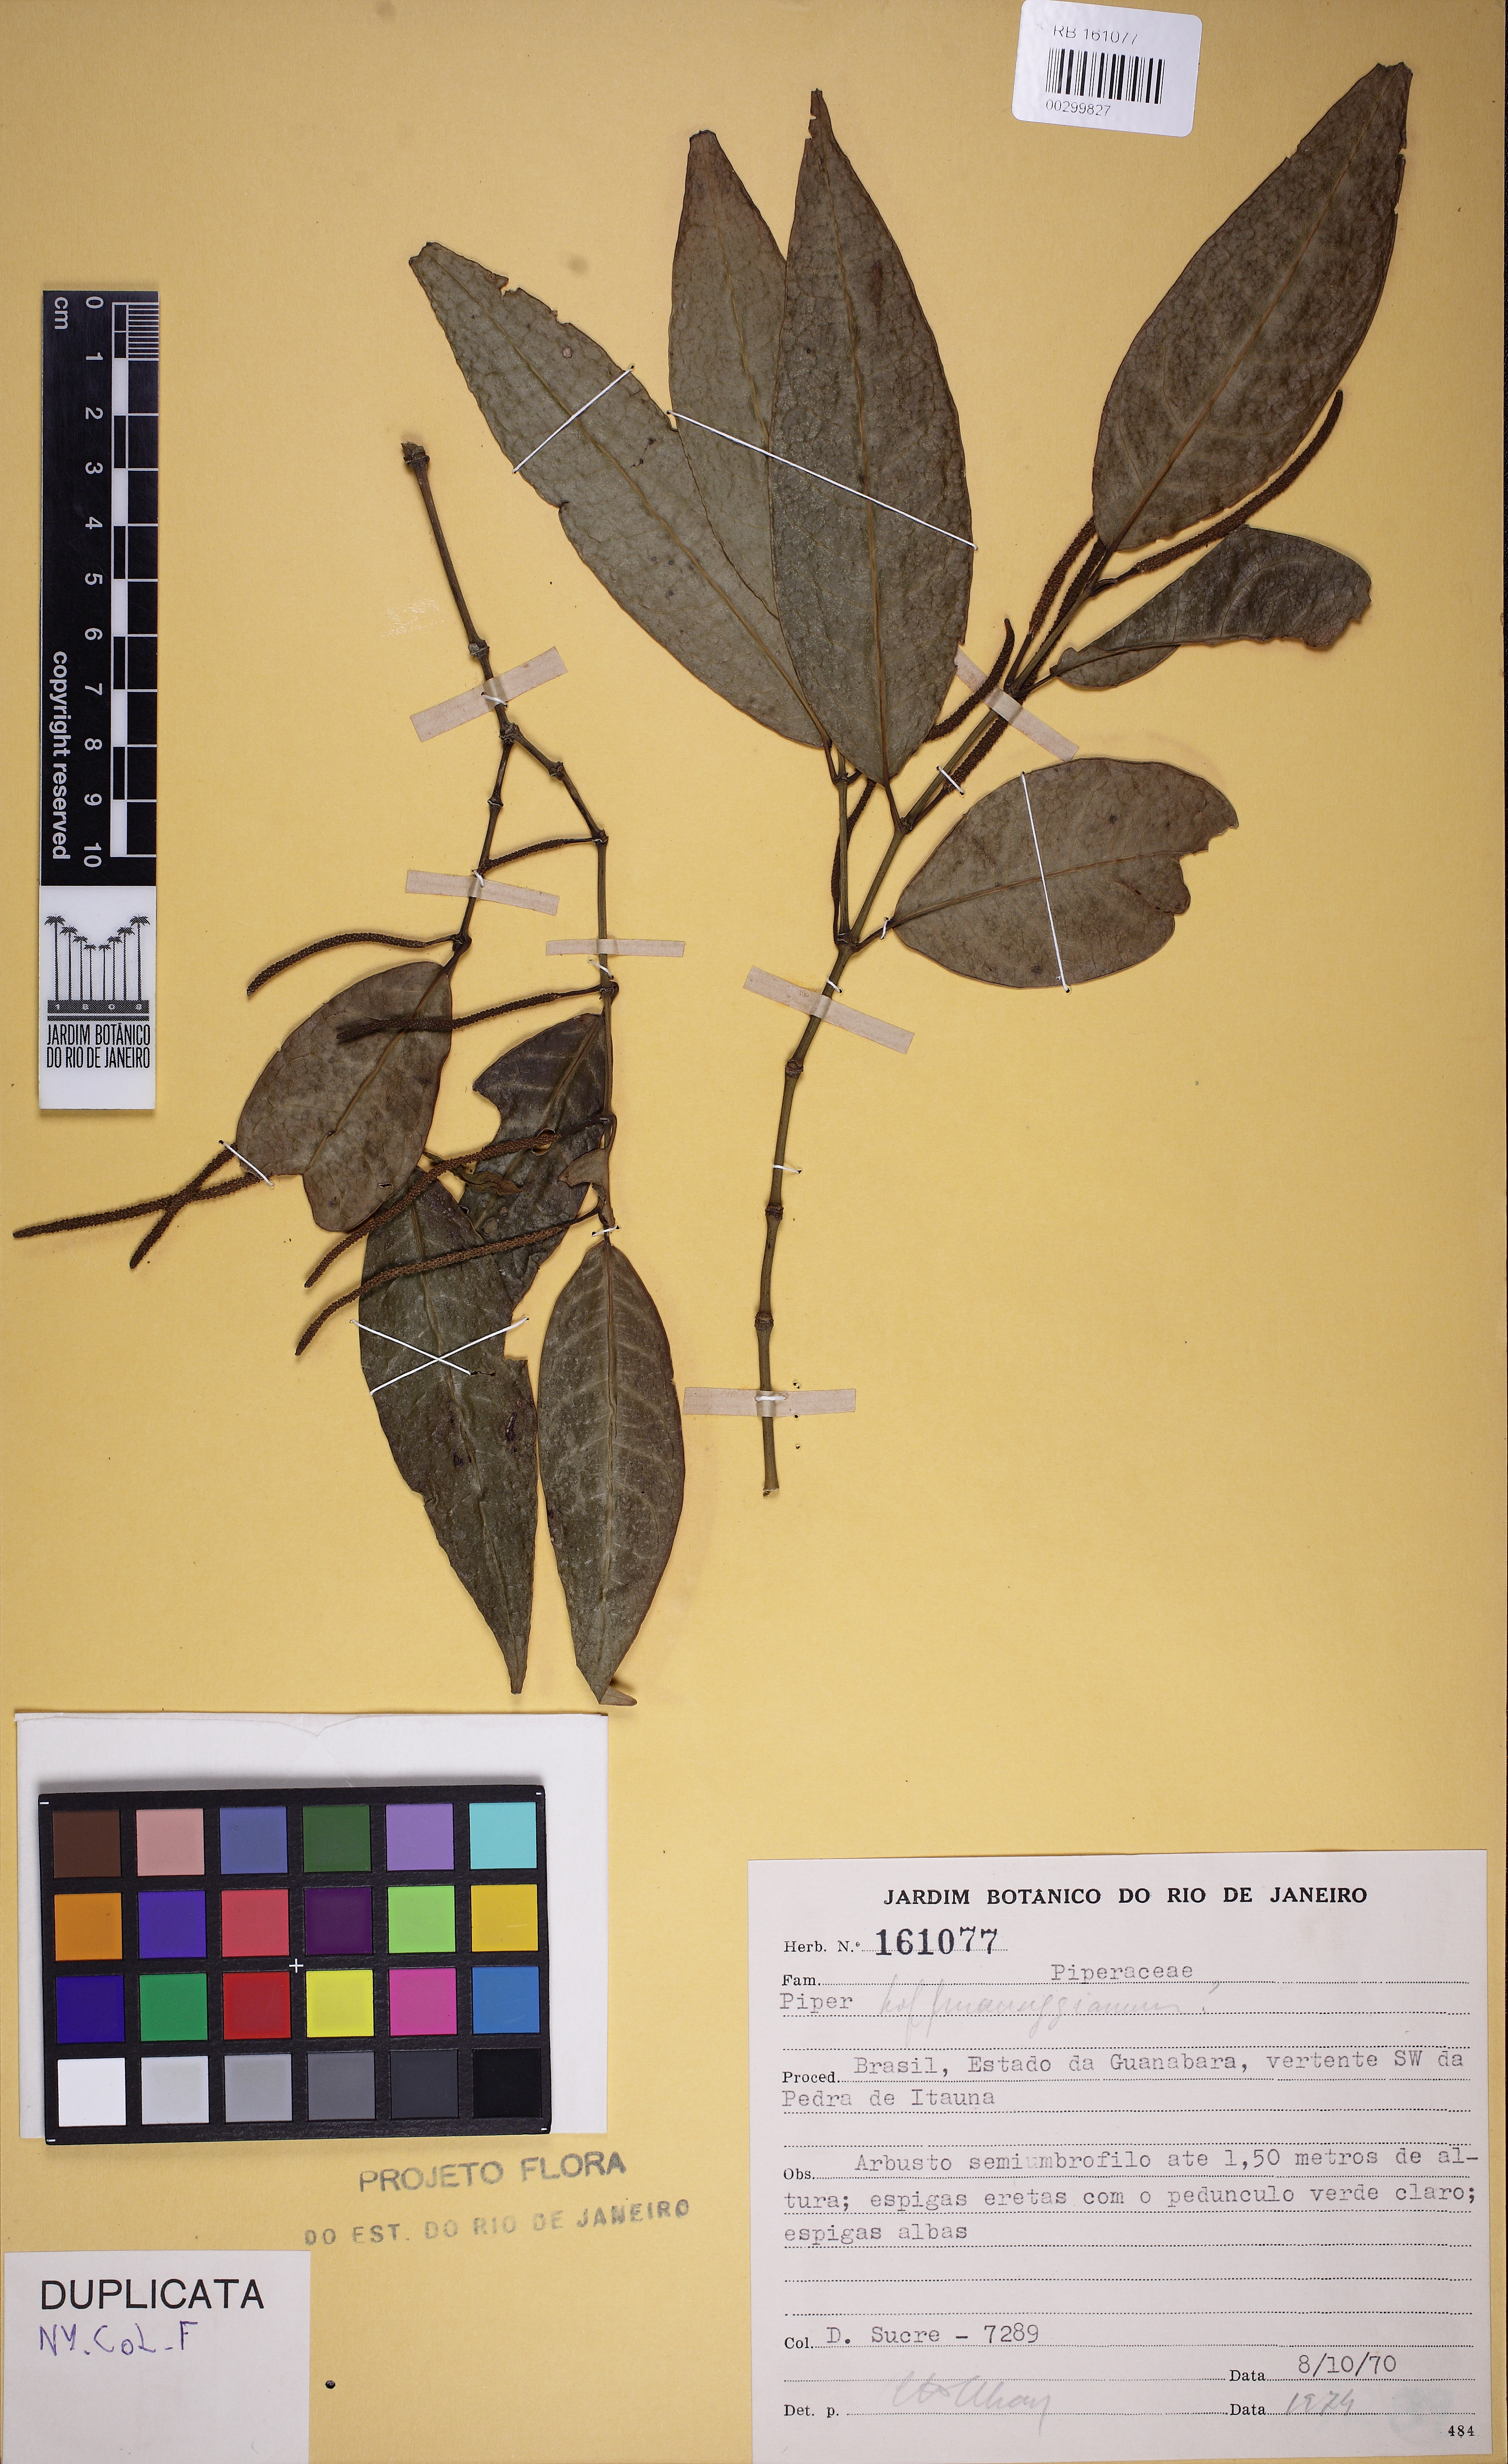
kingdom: Plantae
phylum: Tracheophyta
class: Magnoliopsida
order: Piperales
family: Piperaceae
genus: Piper
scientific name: Piper hoffmannseggianum
